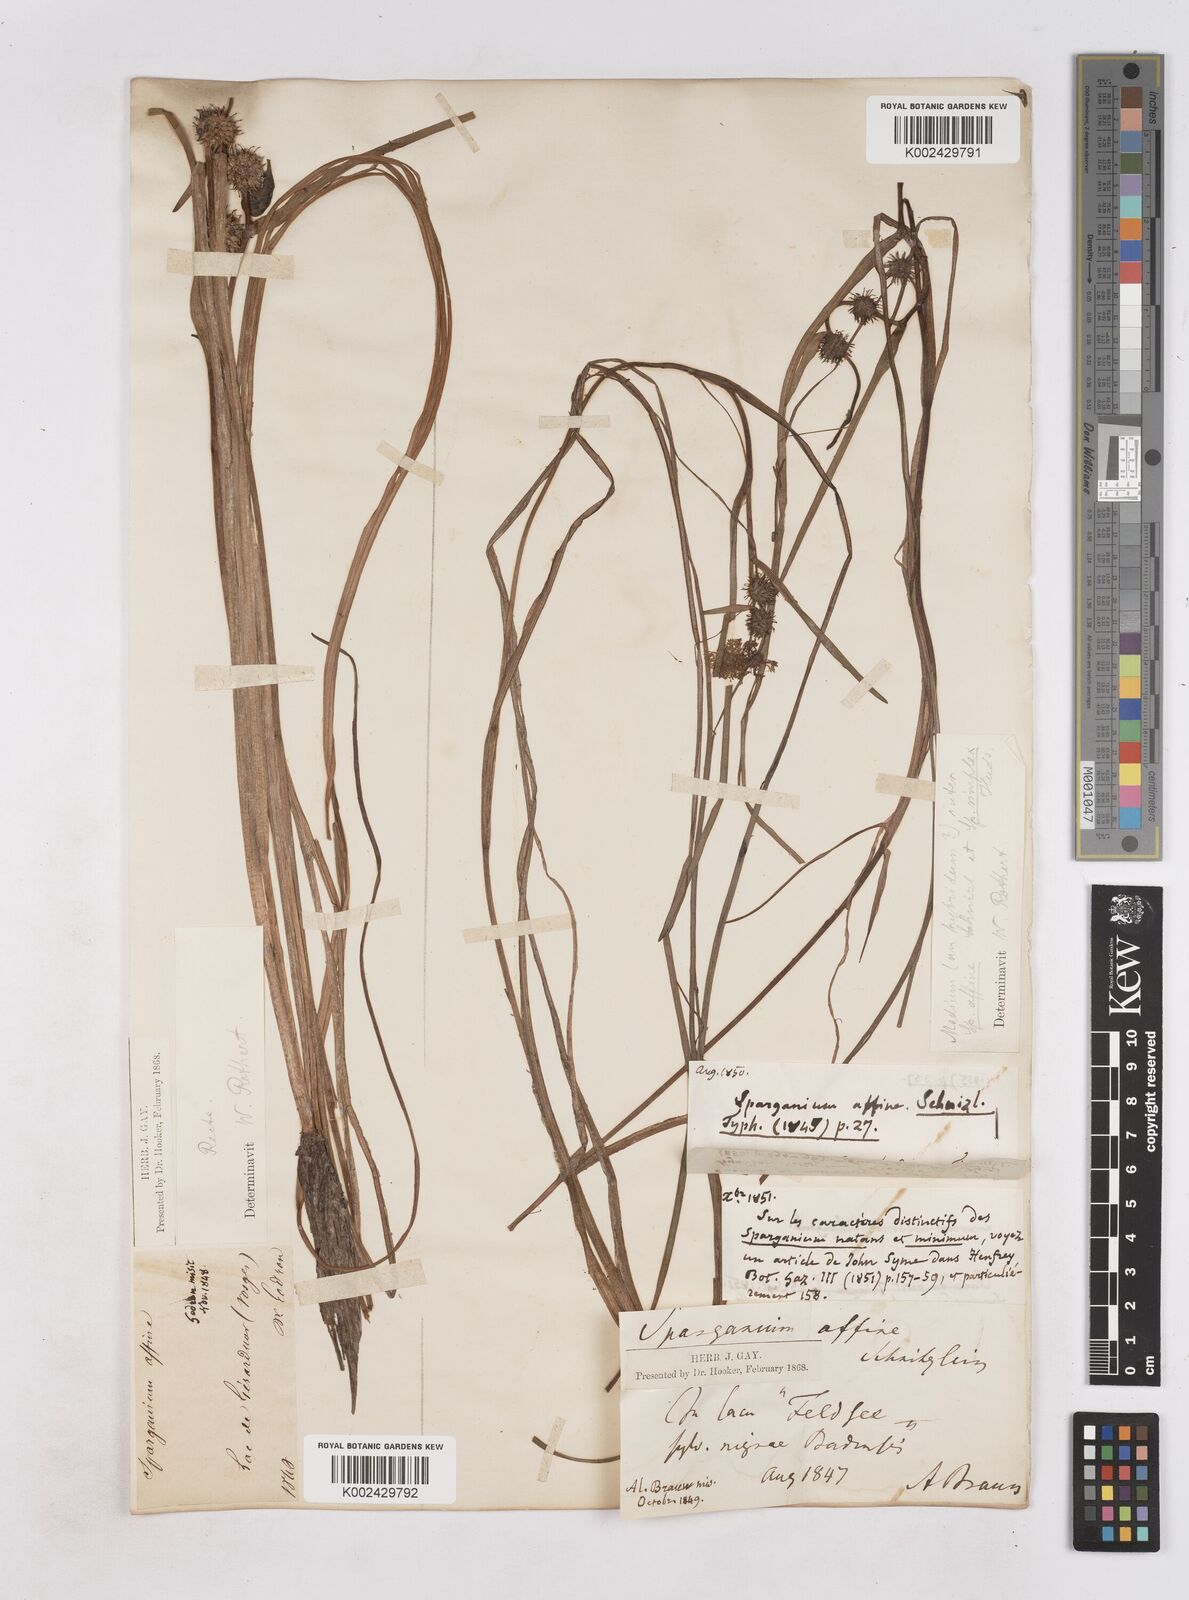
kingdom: Plantae
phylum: Tracheophyta
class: Liliopsida
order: Poales
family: Typhaceae
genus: Sparganium
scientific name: Sparganium angustifolium
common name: Floating bur-reed
